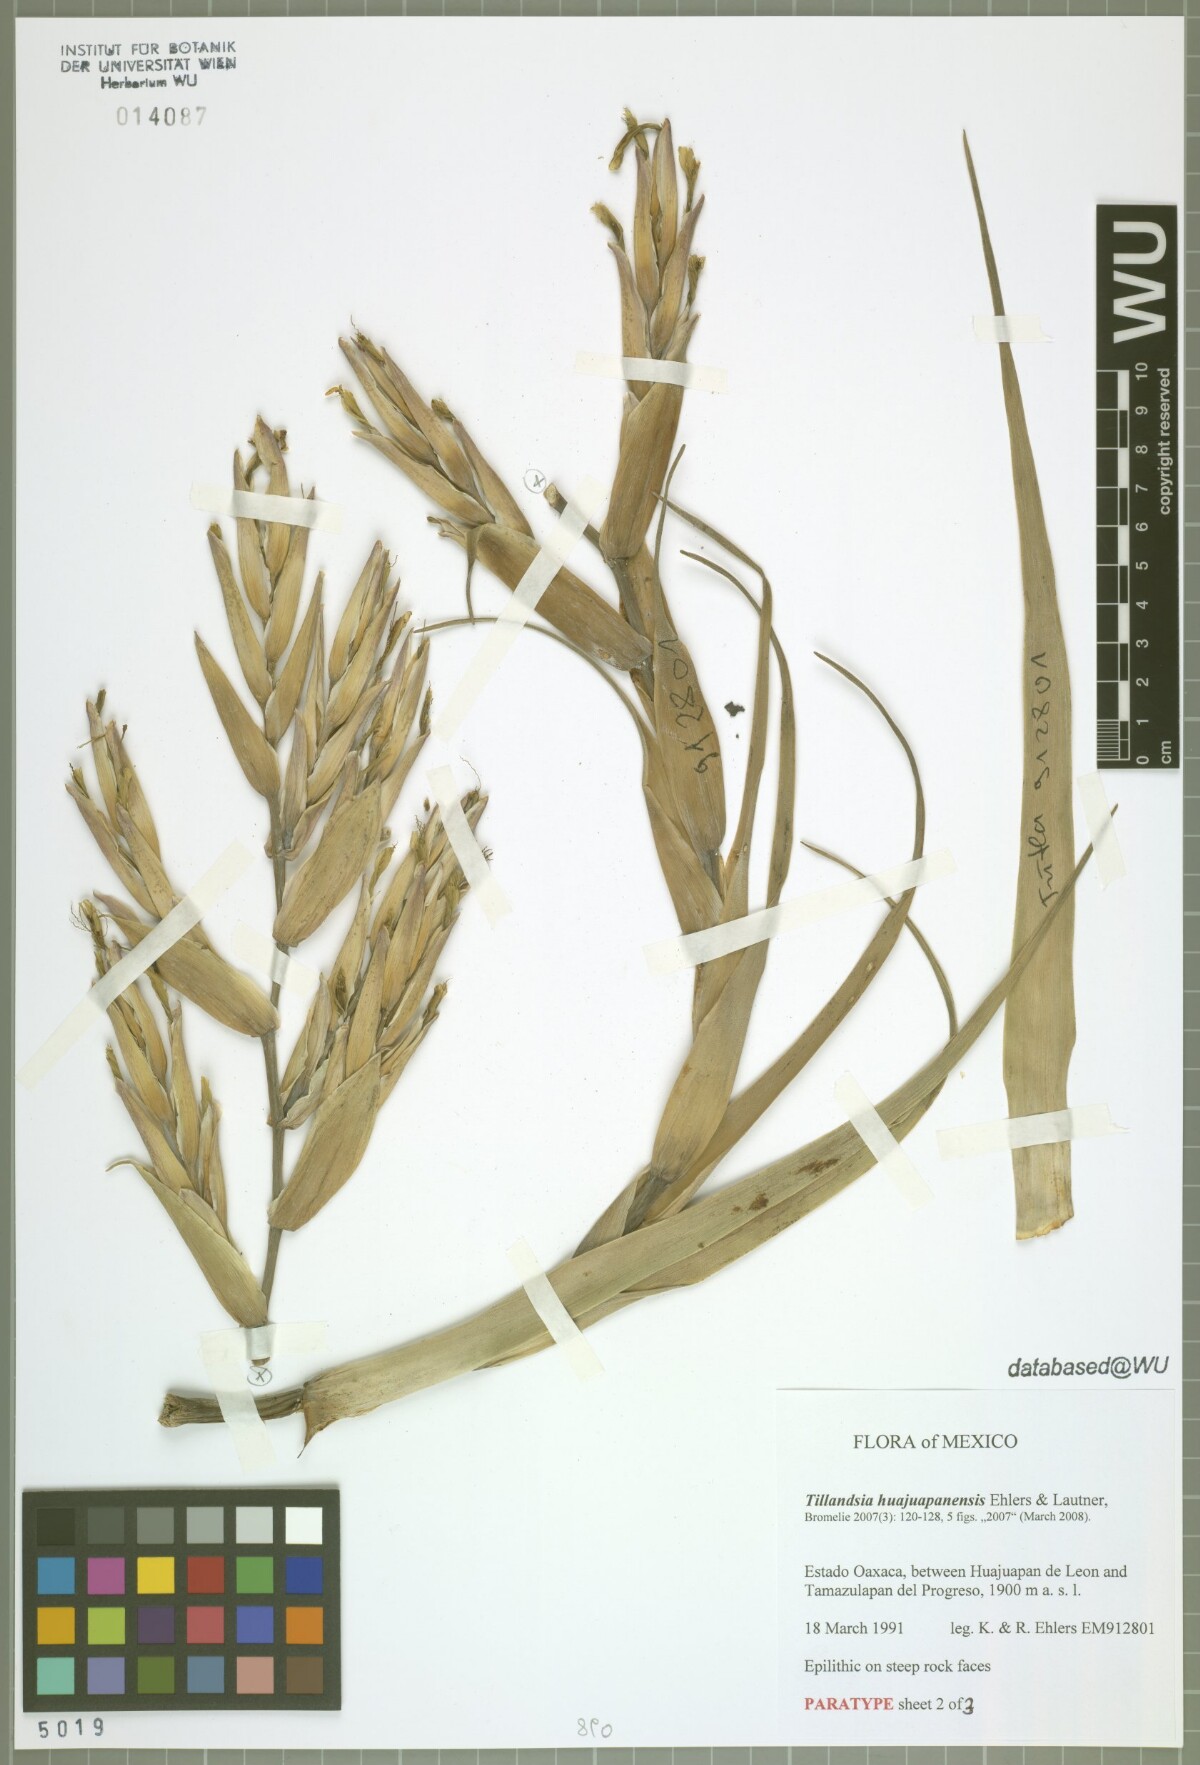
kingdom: Plantae
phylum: Tracheophyta
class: Liliopsida
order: Poales
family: Bromeliaceae
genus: Tillandsia
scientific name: Tillandsia huajuapanensis
